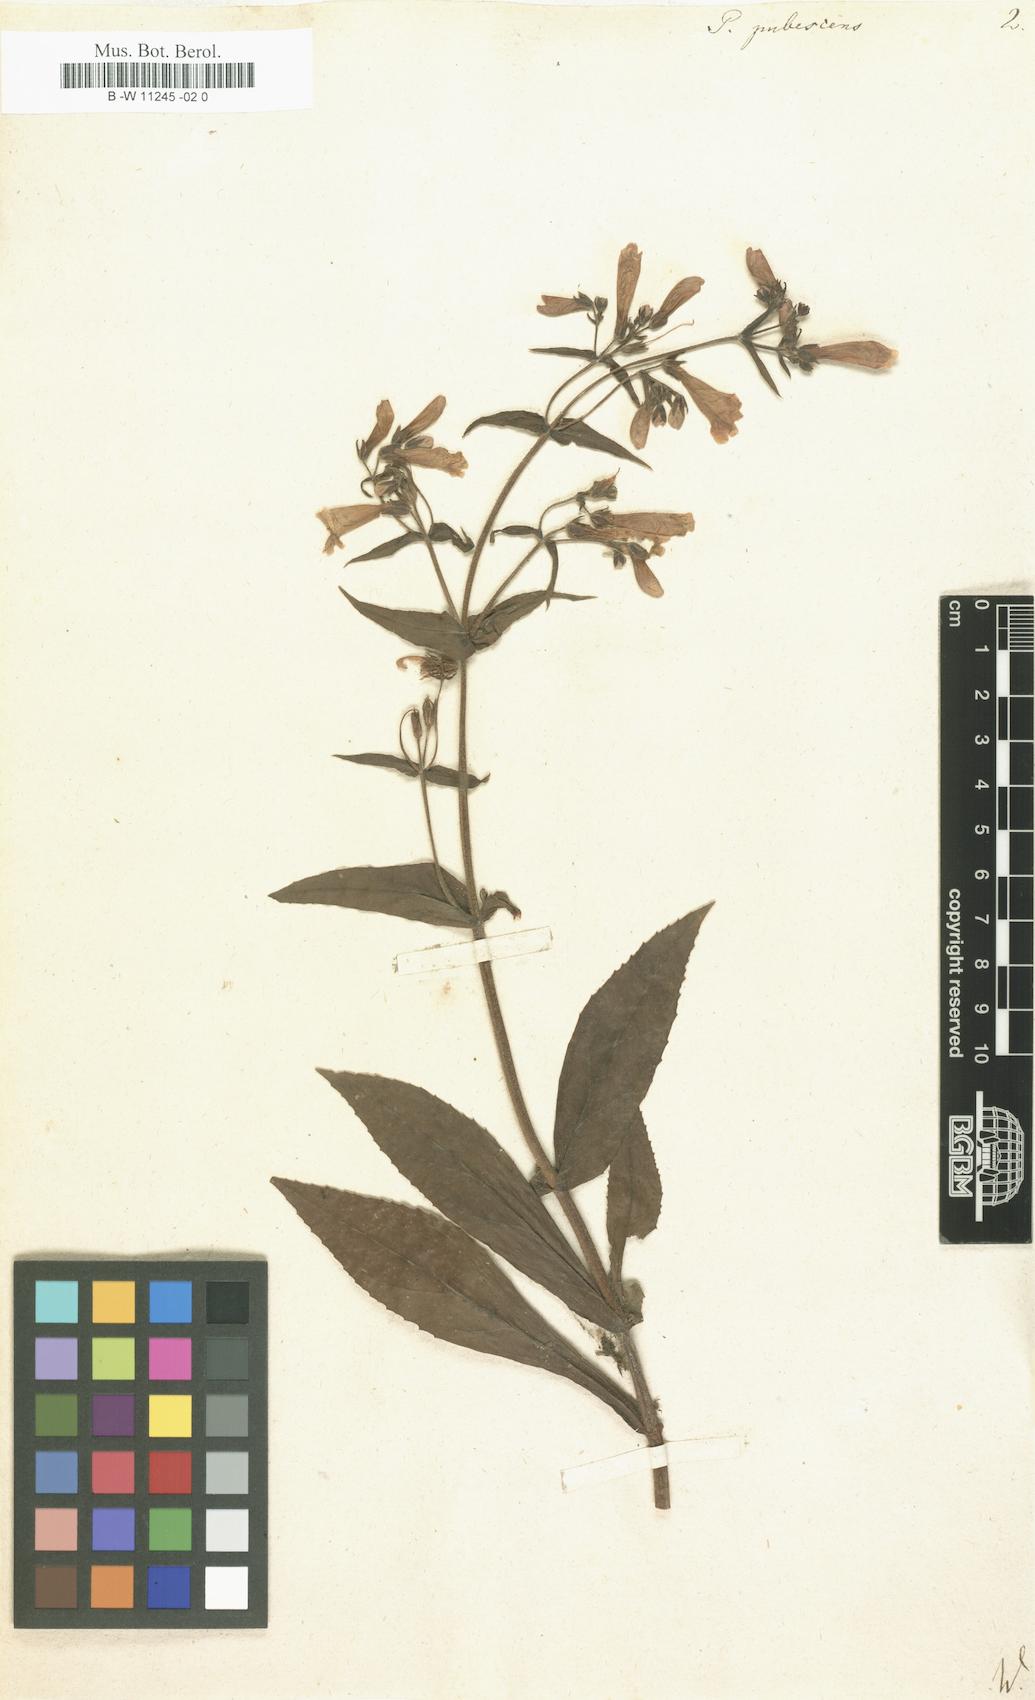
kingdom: Plantae
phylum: Tracheophyta
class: Magnoliopsida
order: Lamiales
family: Scrophulariaceae
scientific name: Scrophulariaceae
